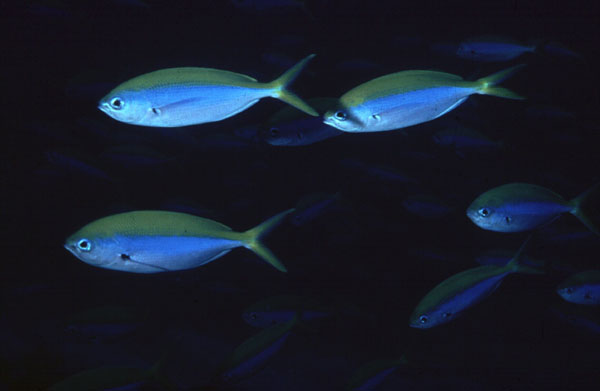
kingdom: Animalia
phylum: Chordata
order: Perciformes
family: Caesionidae
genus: Caesio
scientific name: Caesio xanthonota
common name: Yellowback fusilier
